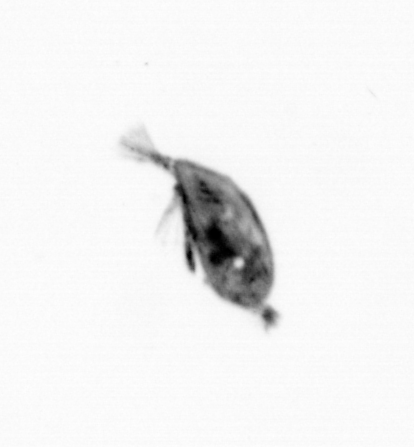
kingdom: Animalia
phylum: Arthropoda
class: Maxillopoda
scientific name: Maxillopoda
